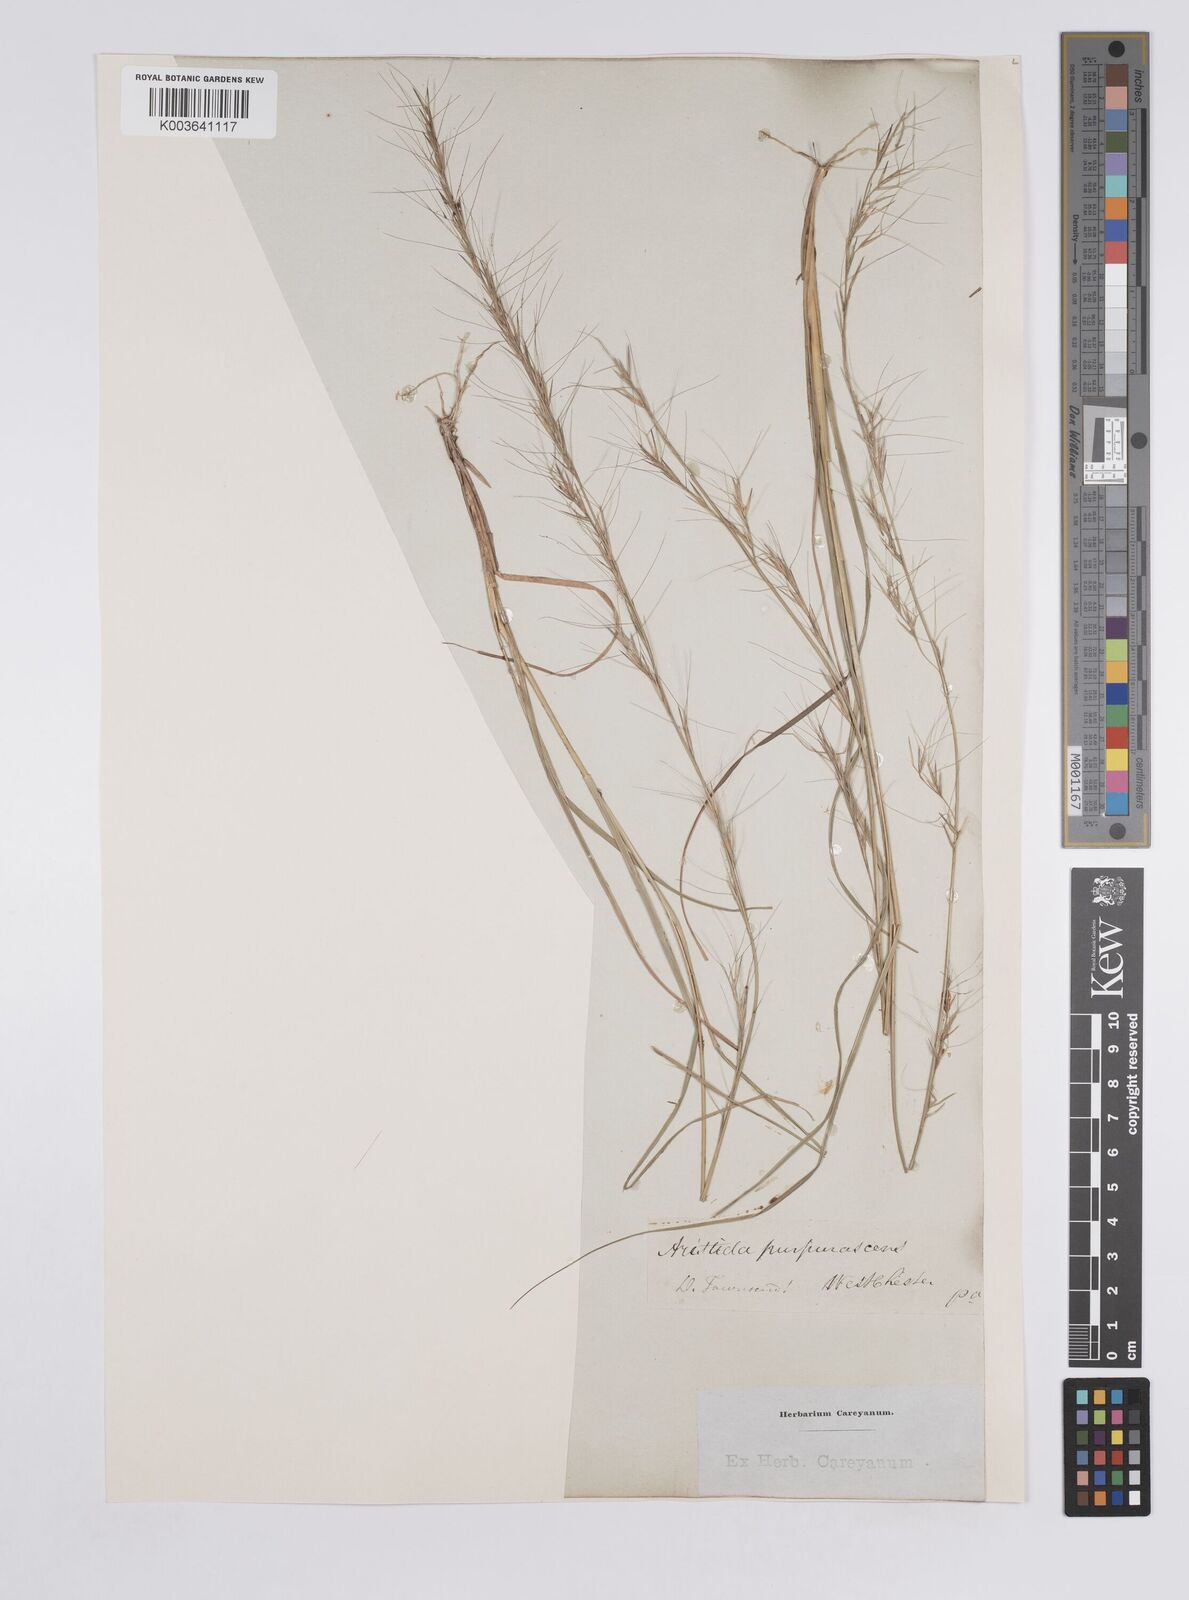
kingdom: Plantae
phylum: Tracheophyta
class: Liliopsida
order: Poales
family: Poaceae
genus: Aristida
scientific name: Aristida purpurascens
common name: Arrow-feather
